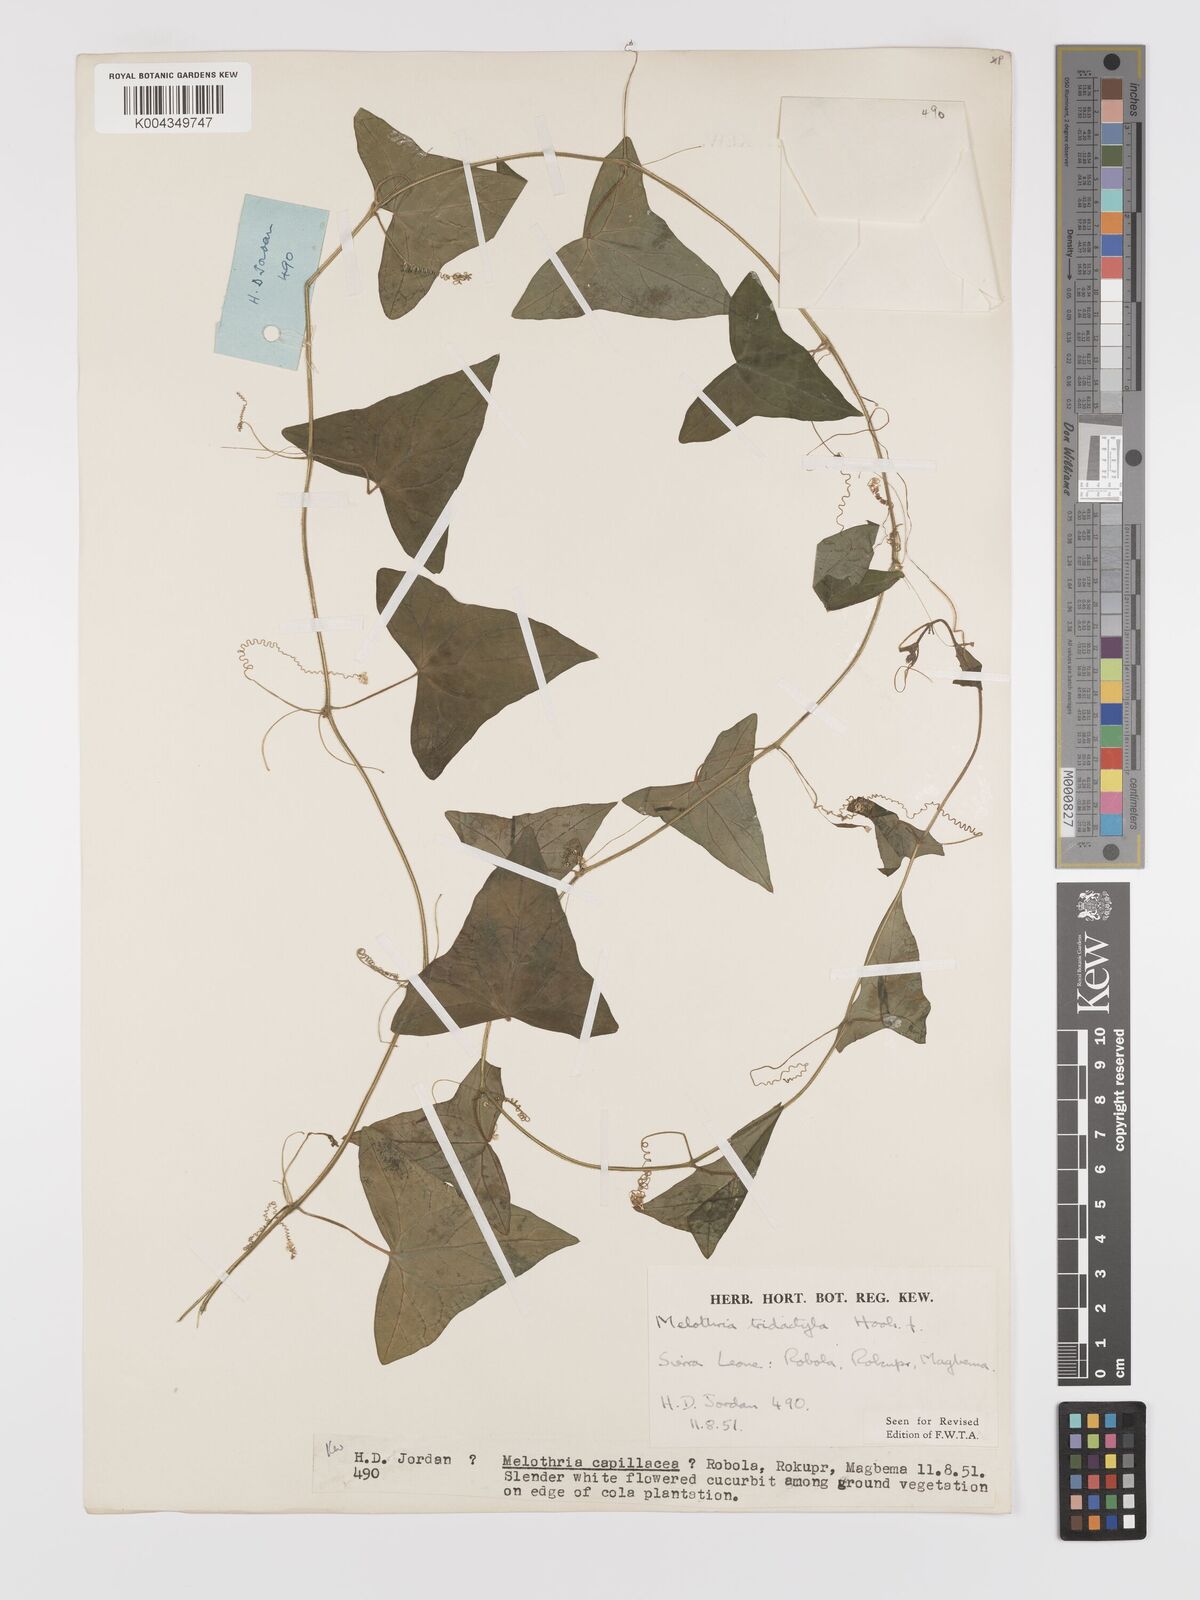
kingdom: Plantae
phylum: Tracheophyta
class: Magnoliopsida
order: Cucurbitales
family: Cucurbitaceae
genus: Zehneria
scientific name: Zehneria thwaitesii
